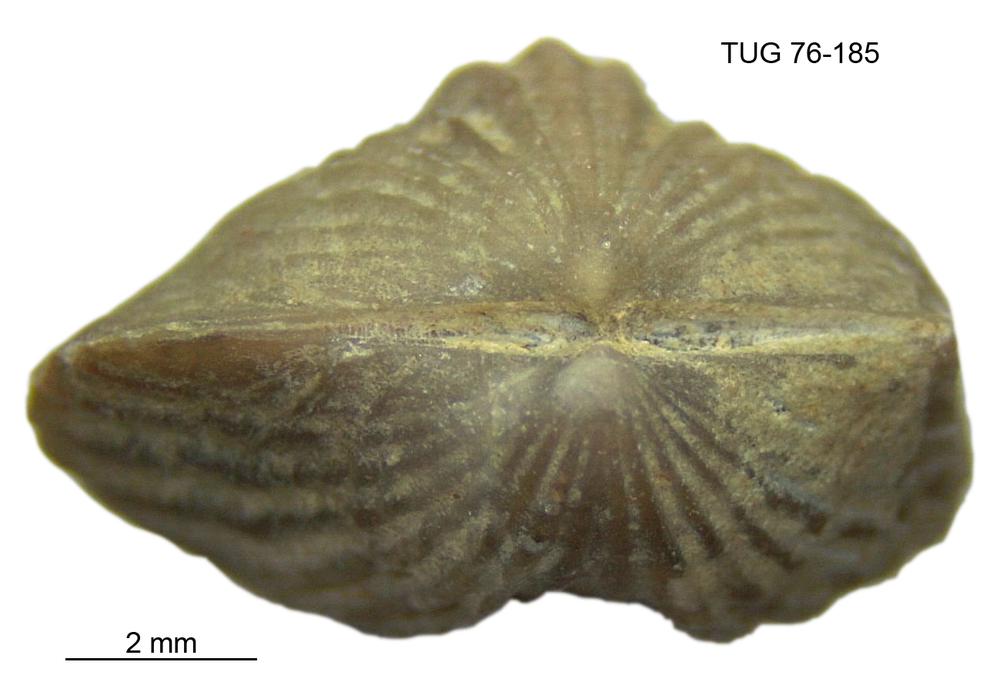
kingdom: Animalia
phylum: Brachiopoda
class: Rhynchonellata
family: Plectorthidae
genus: Platystrophia
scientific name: Platystrophia dentata
